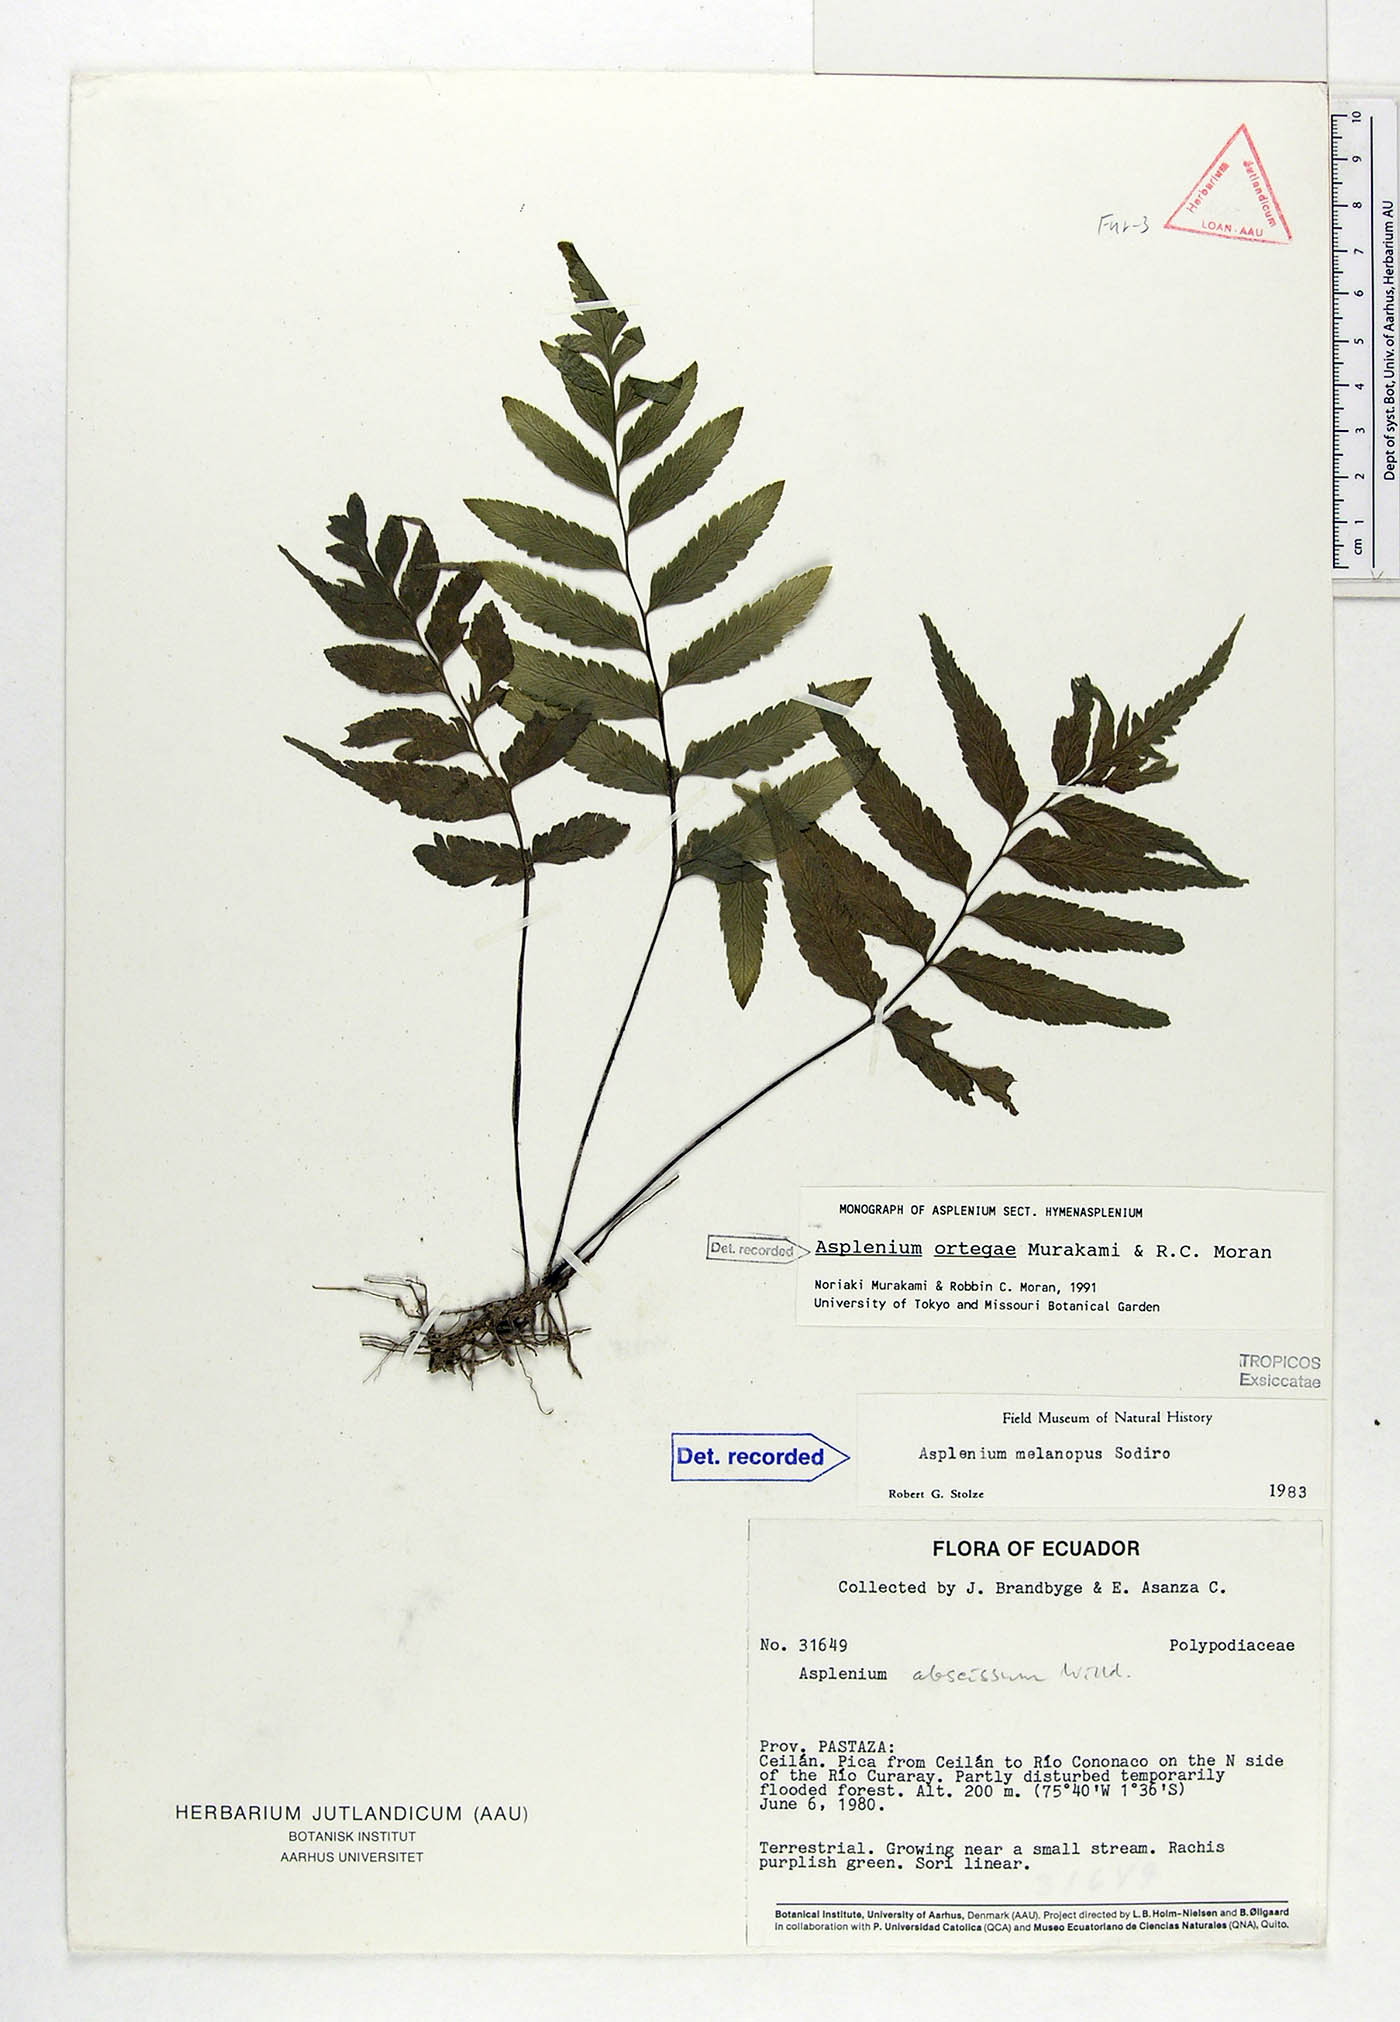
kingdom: Plantae
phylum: Tracheophyta
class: Polypodiopsida
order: Polypodiales
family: Aspleniaceae
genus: Hymenasplenium
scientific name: Hymenasplenium ortegae
